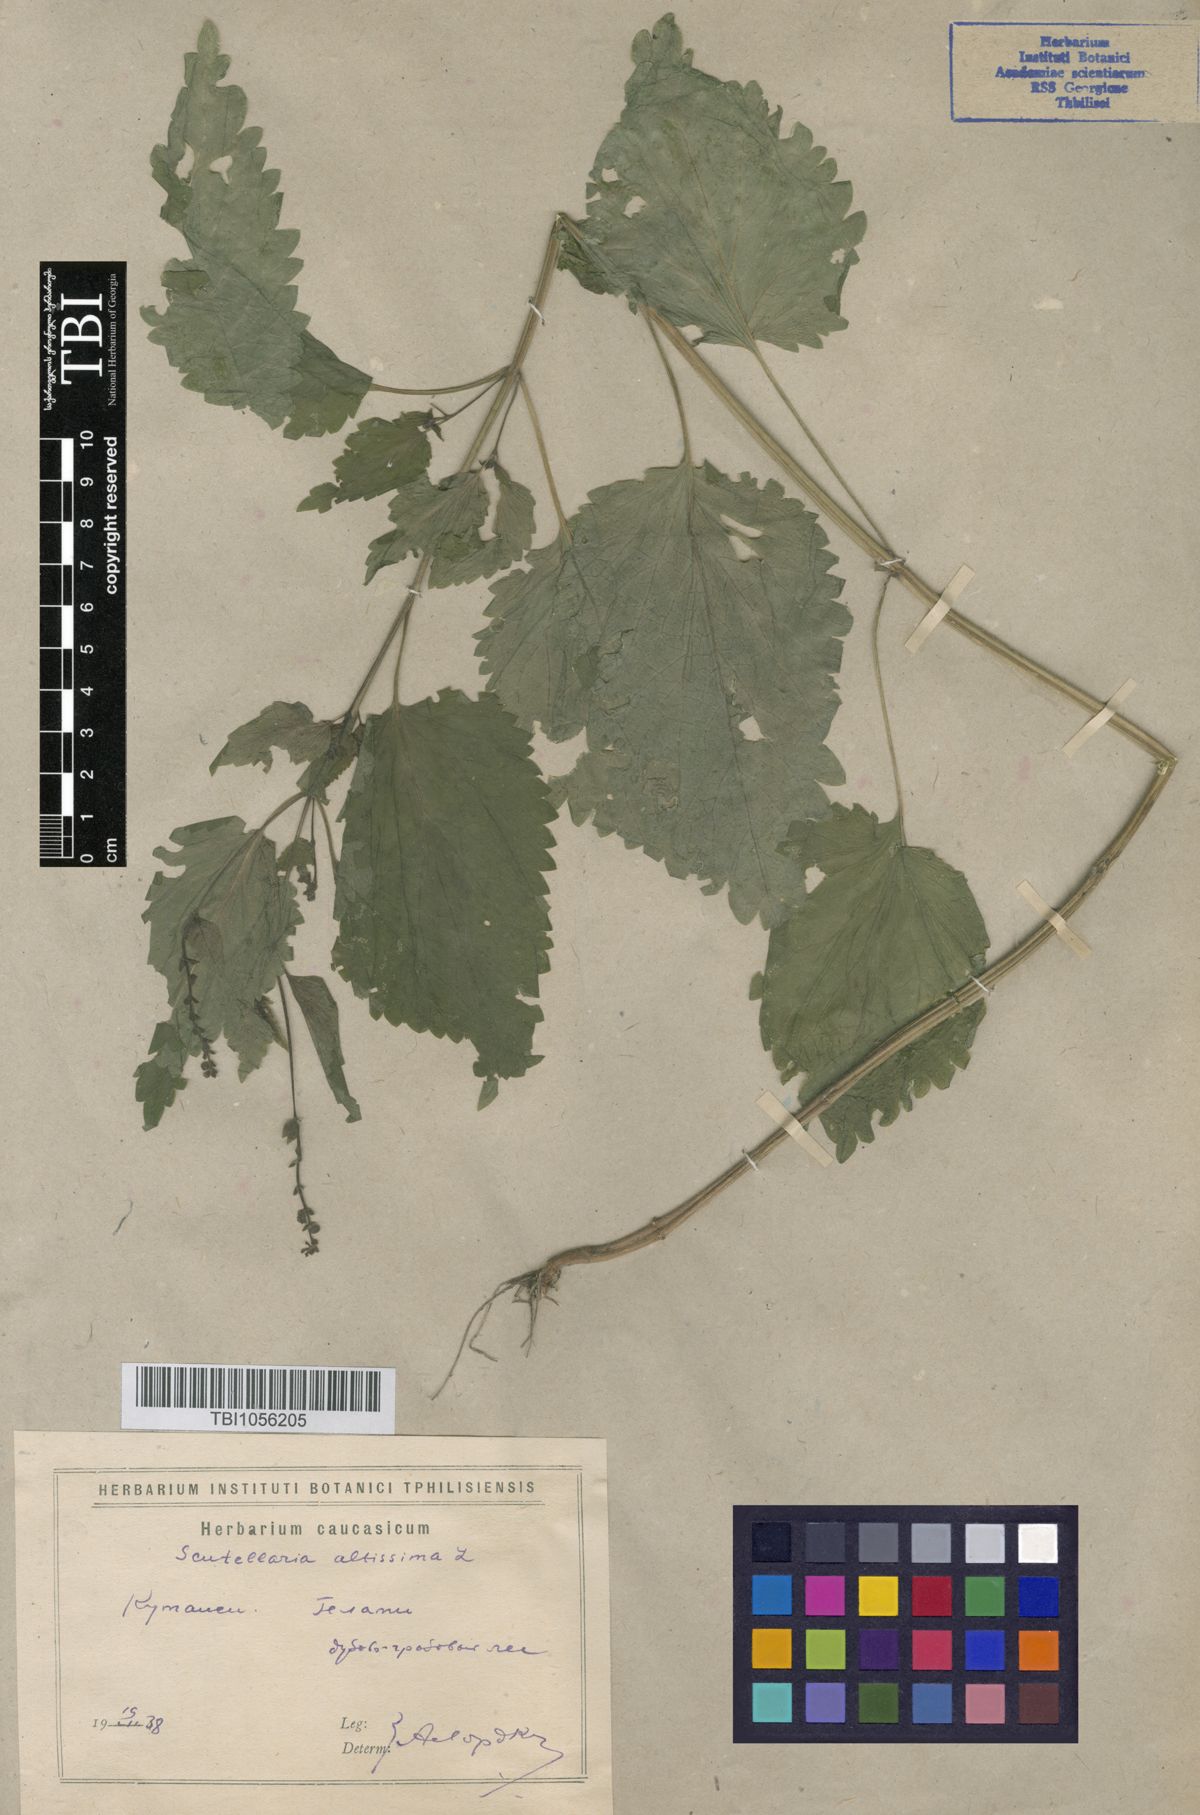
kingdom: Plantae
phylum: Tracheophyta
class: Magnoliopsida
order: Lamiales
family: Lamiaceae
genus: Scutellaria
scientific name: Scutellaria altissima
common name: Somerset skullcap
